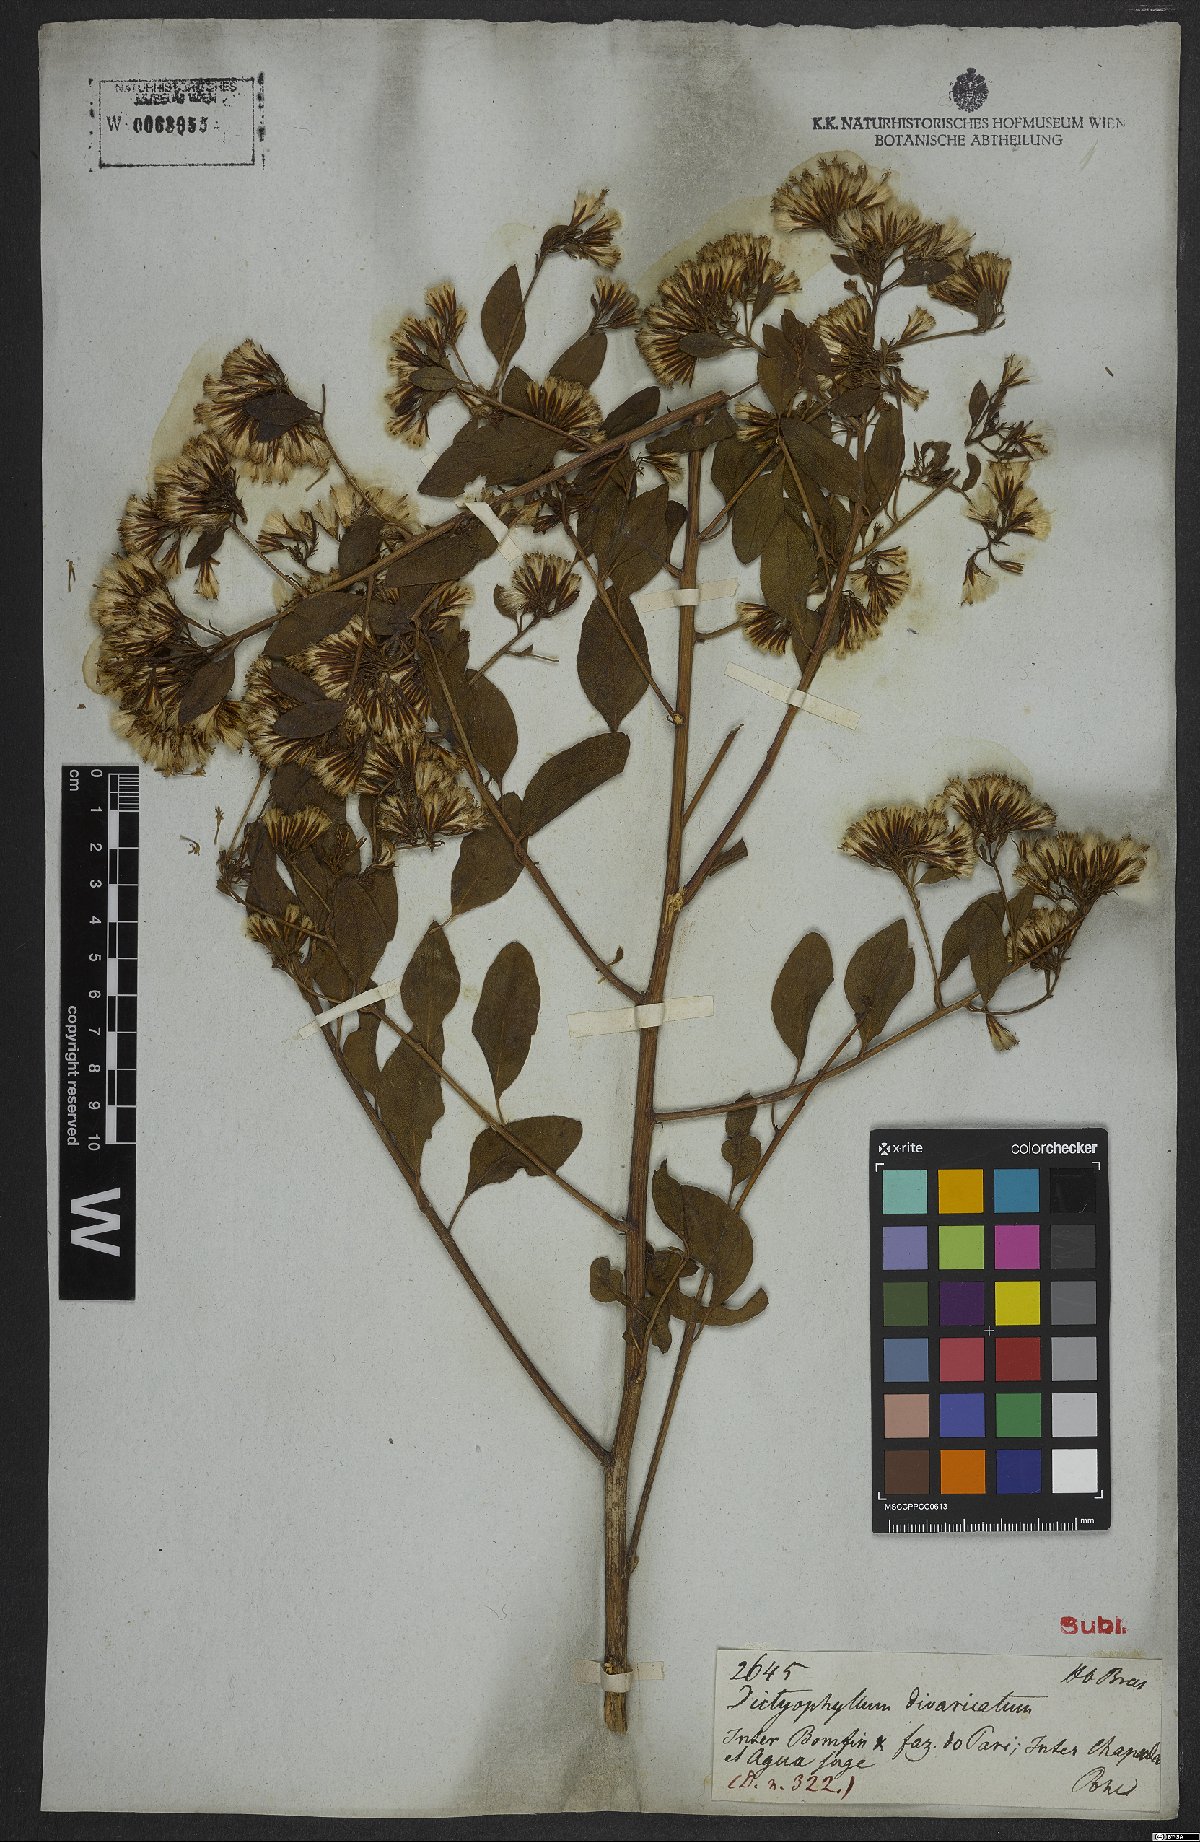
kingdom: Plantae
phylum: Tracheophyta
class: Magnoliopsida
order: Asterales
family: Asteraceae
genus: Trixis
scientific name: Trixis
